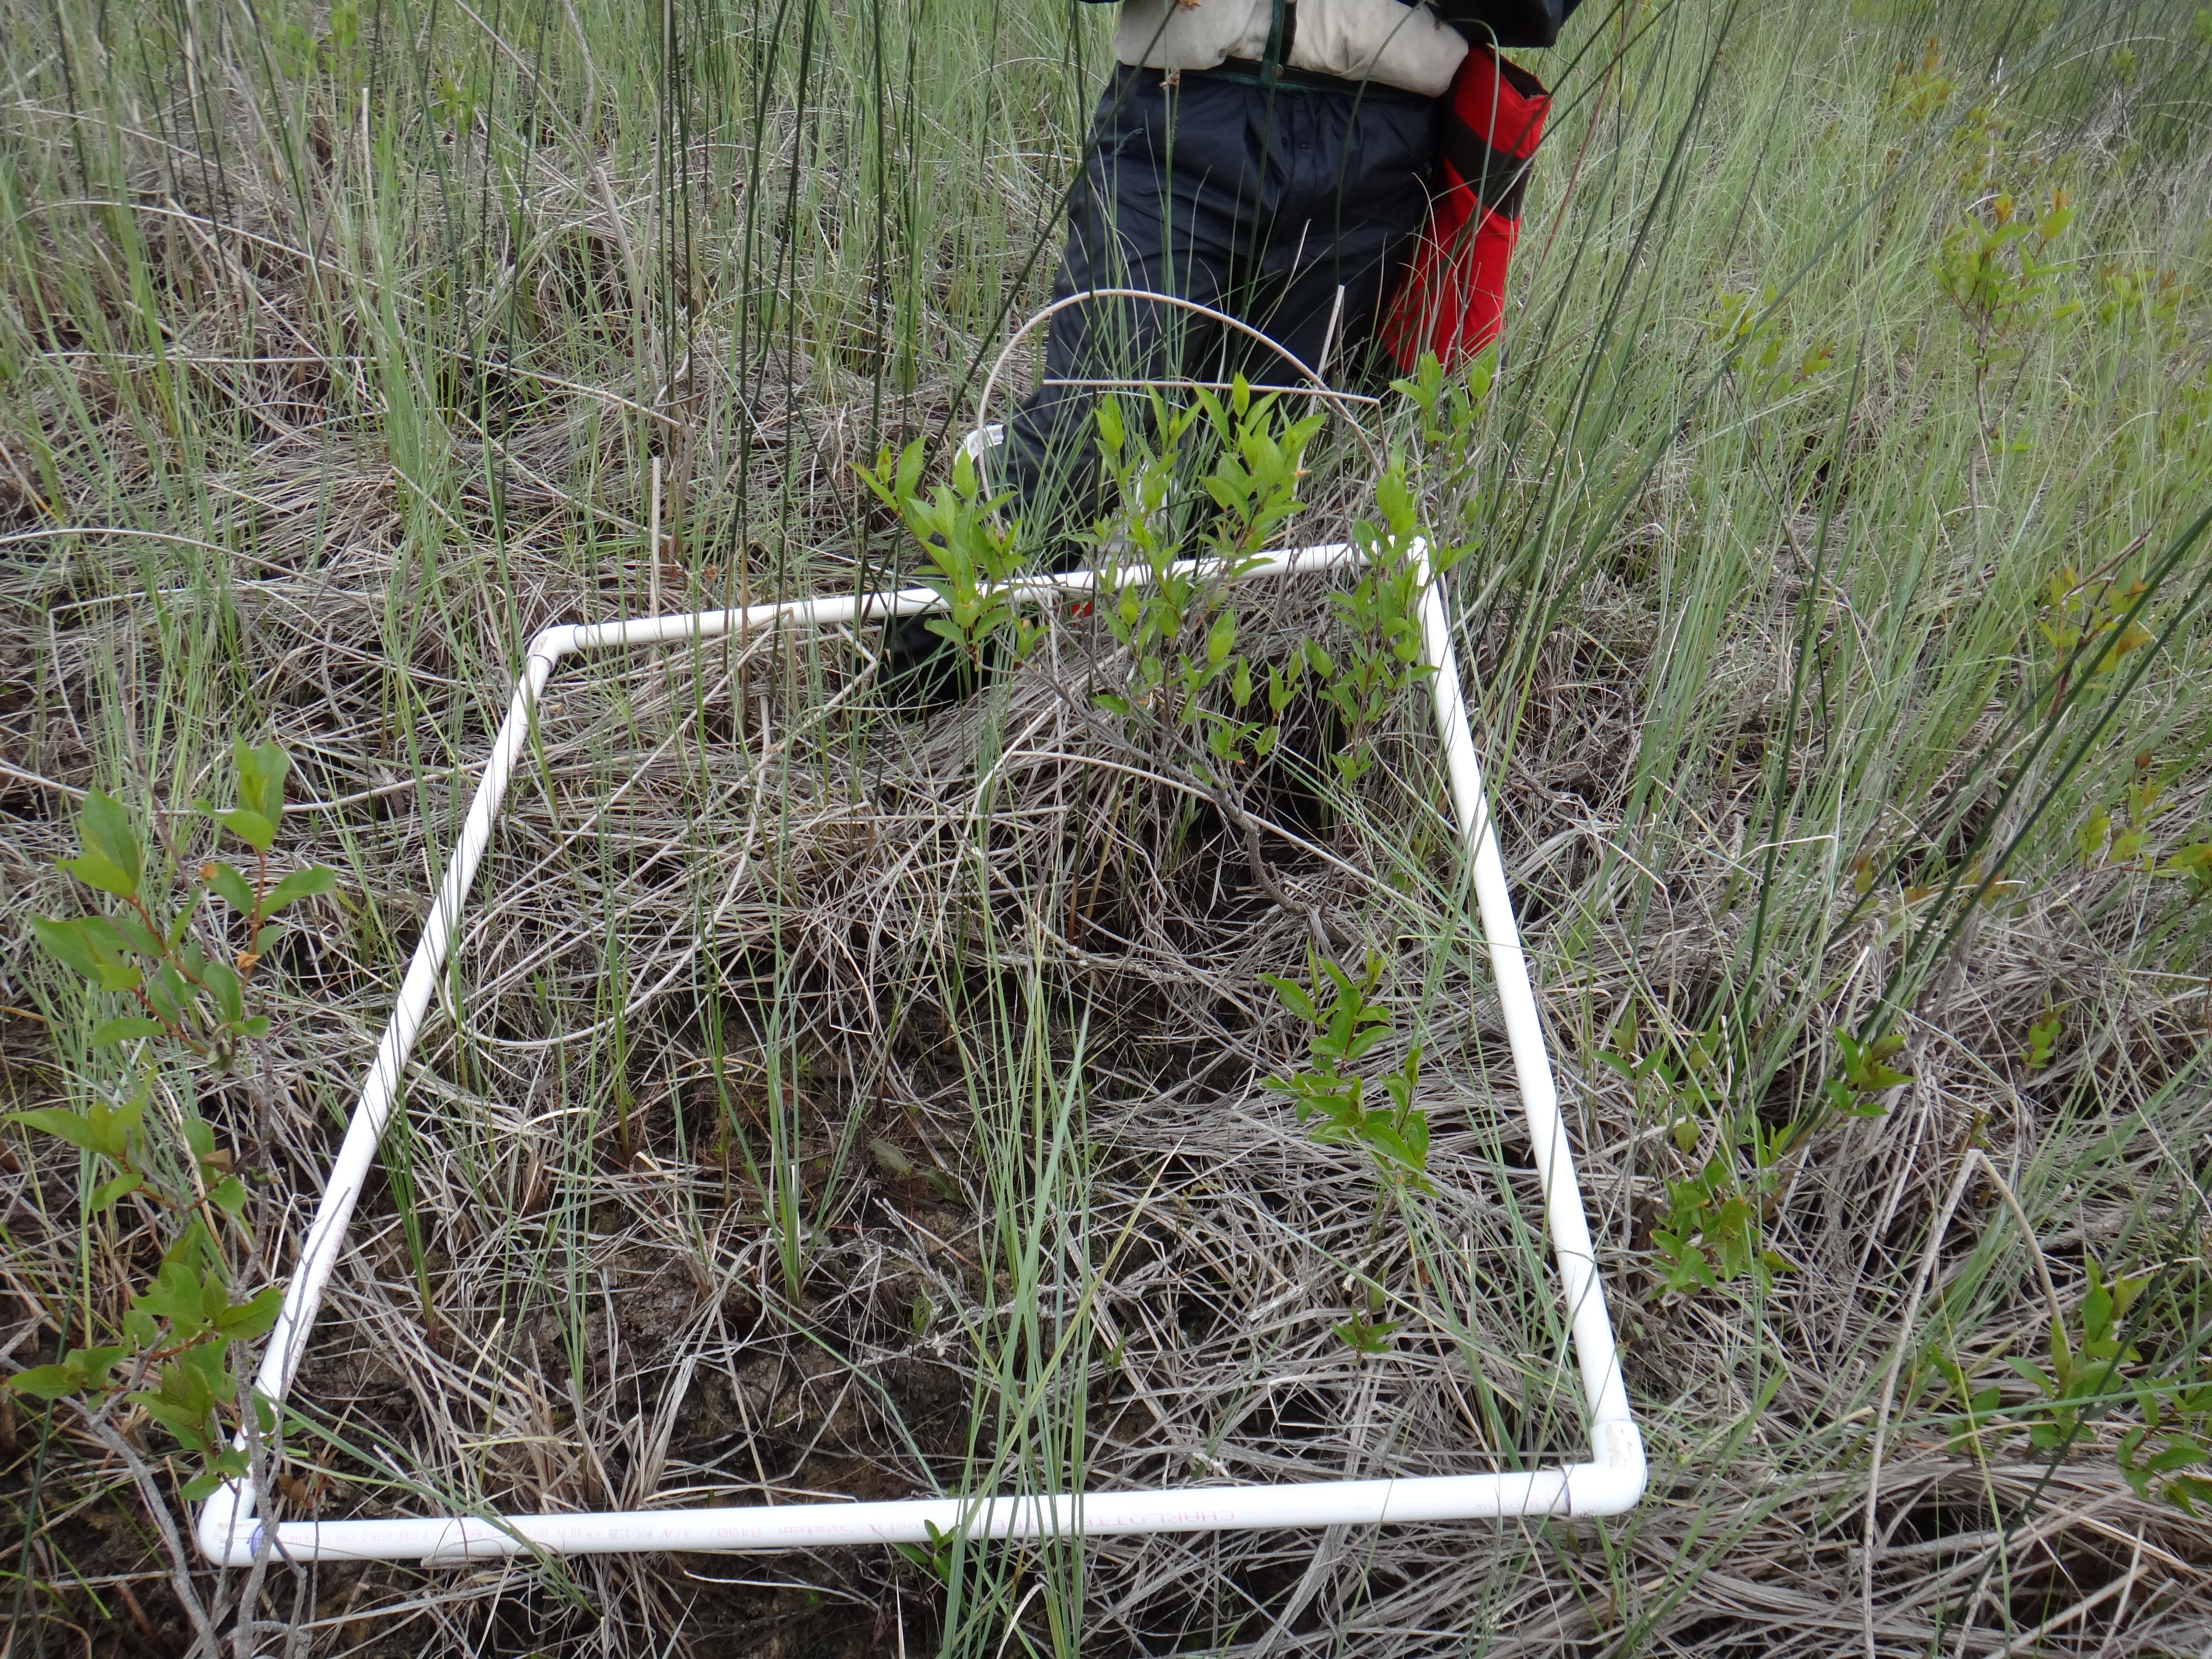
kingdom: Plantae
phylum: Tracheophyta
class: Liliopsida
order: Poales
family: Cyperaceae
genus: Eleocharis
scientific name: Eleocharis palustris
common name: Common spike-rush
